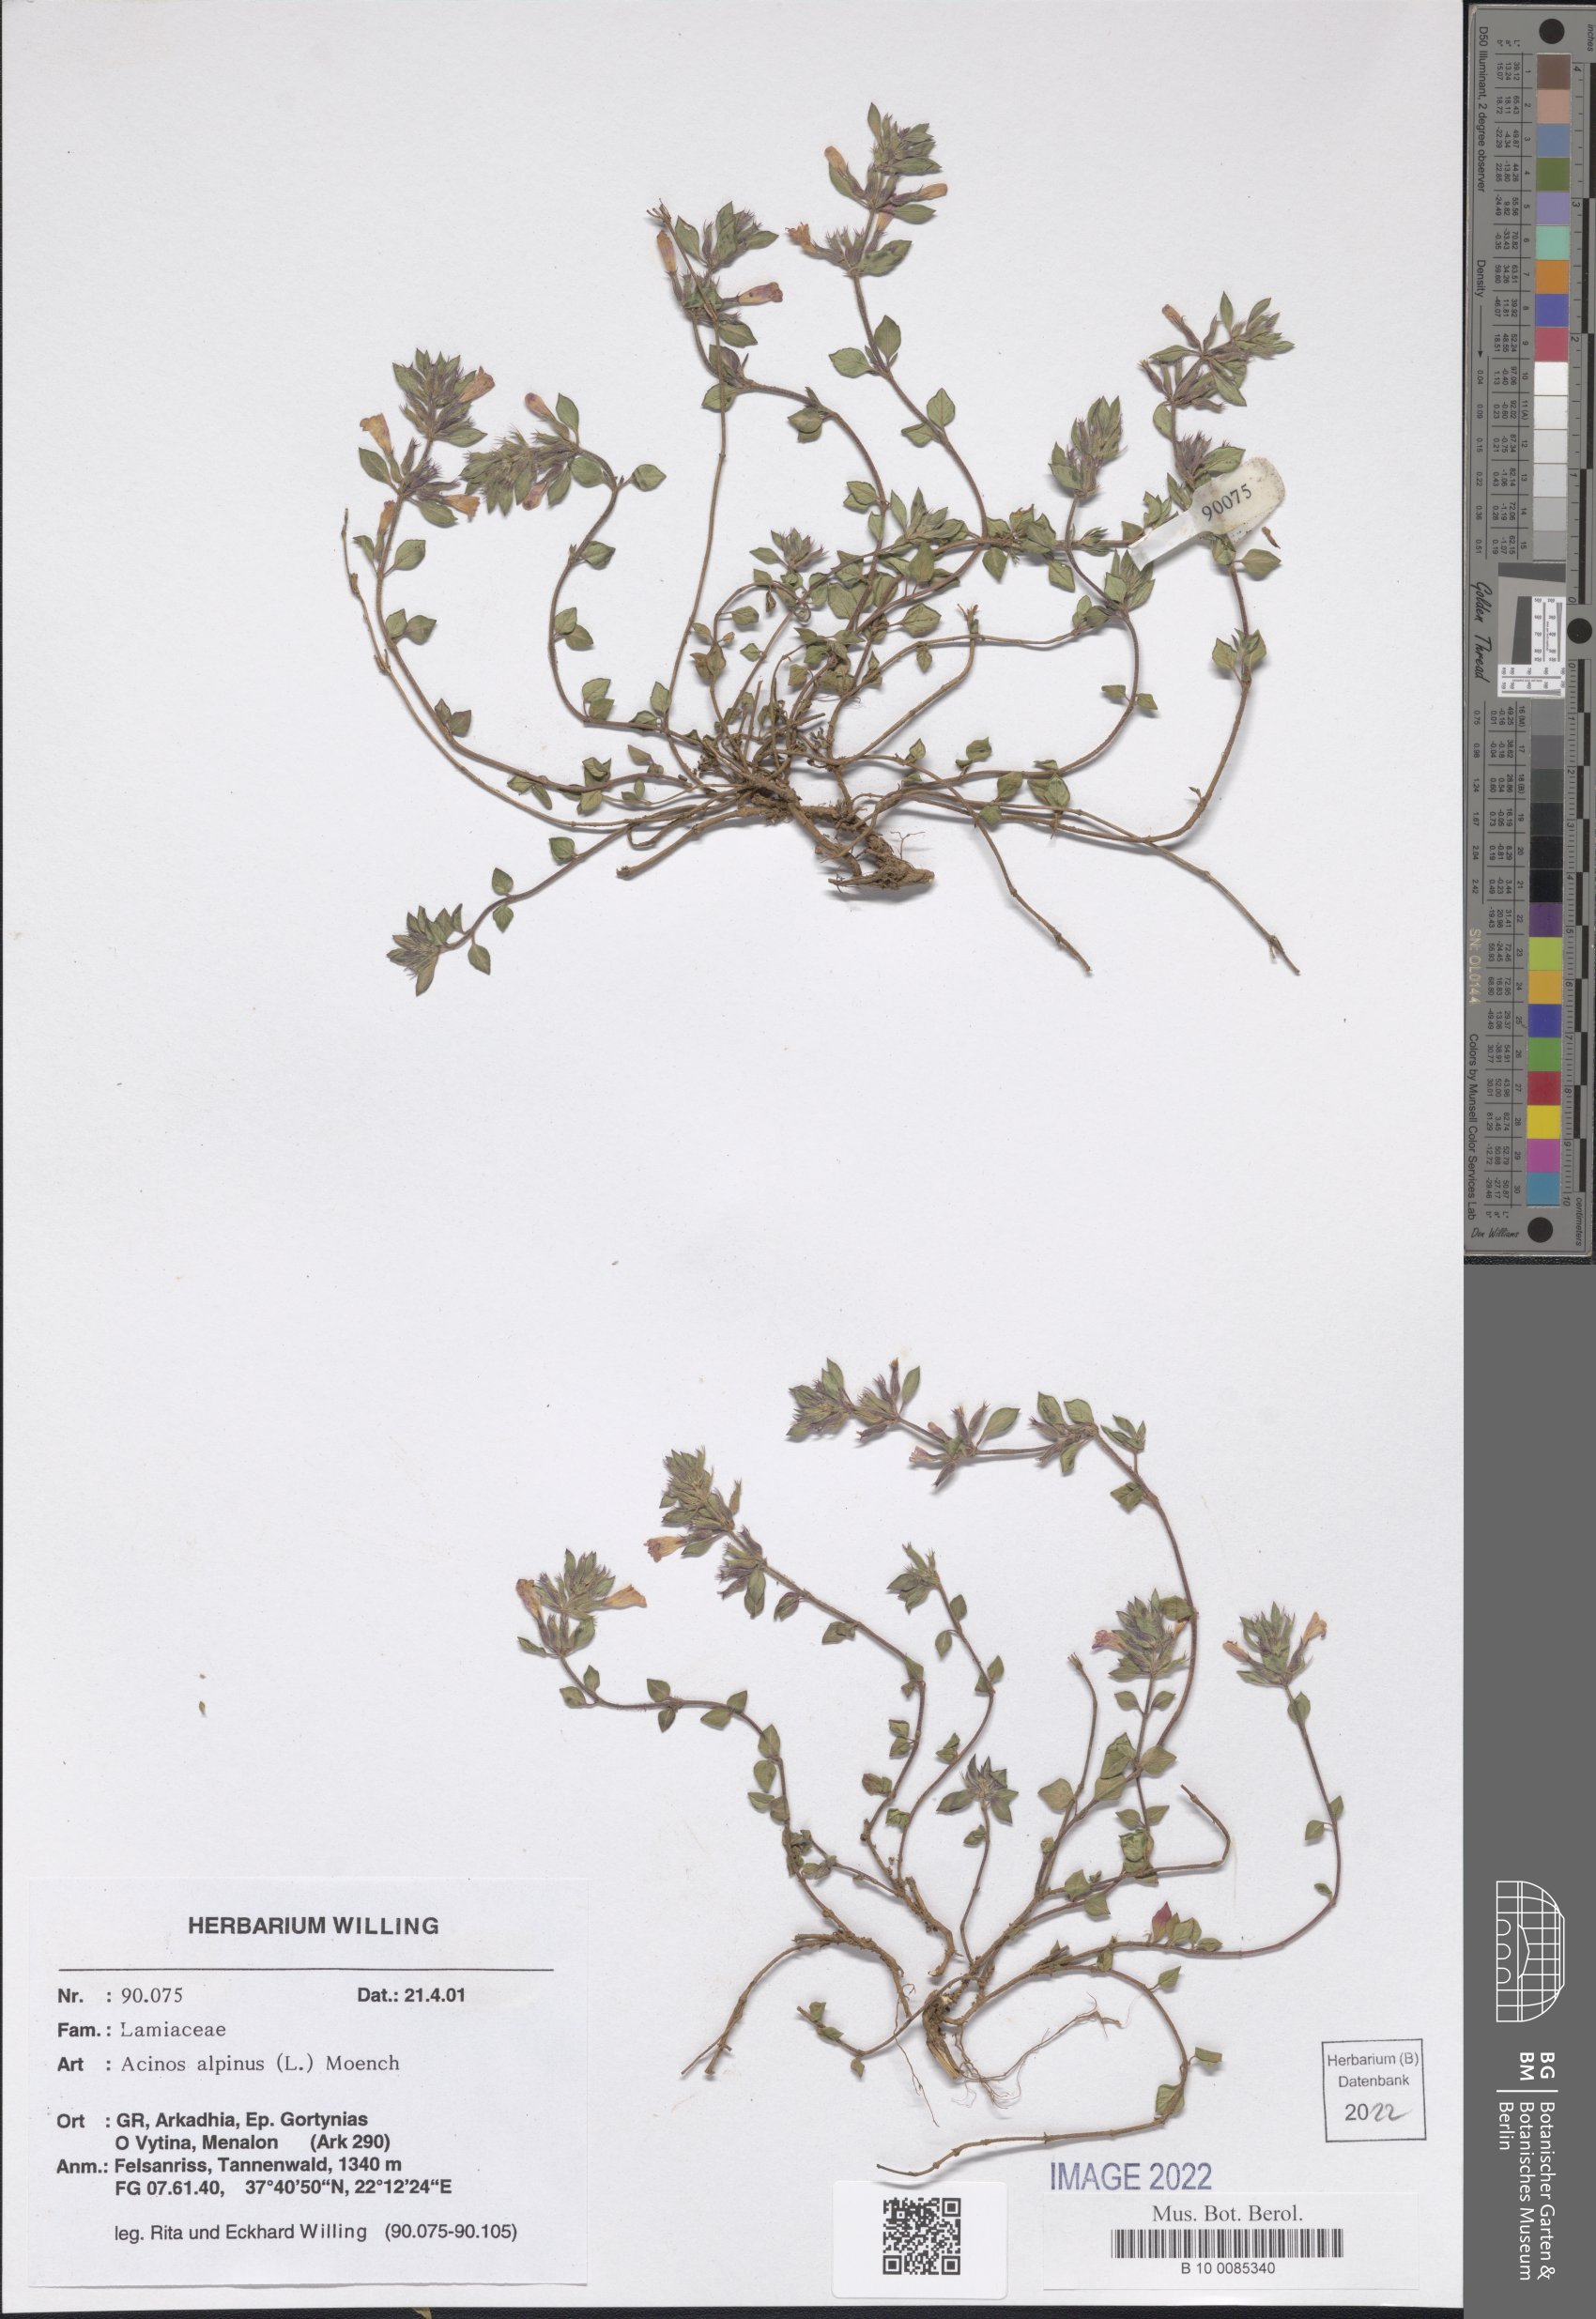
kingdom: Plantae
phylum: Tracheophyta
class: Magnoliopsida
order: Lamiales
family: Lamiaceae
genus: Clinopodium
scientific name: Clinopodium alpinum
